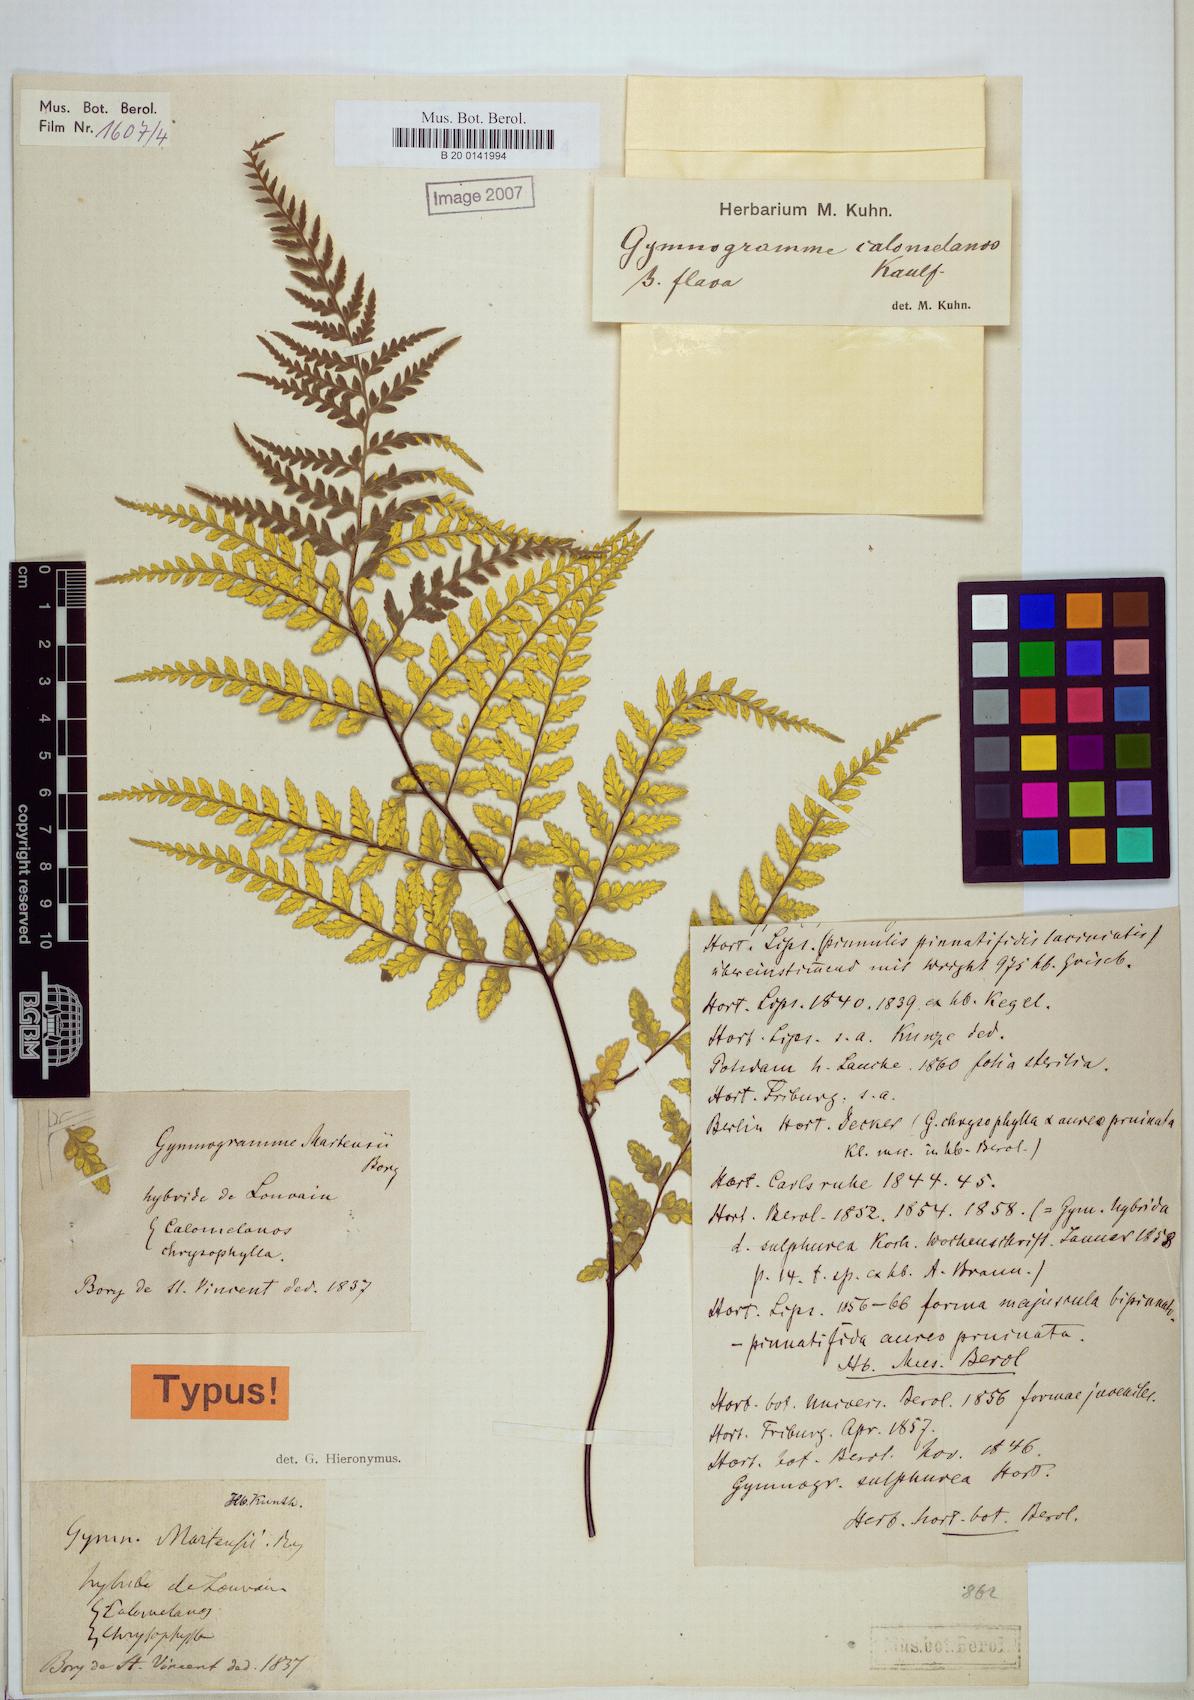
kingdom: Plantae
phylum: Tracheophyta
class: Polypodiopsida
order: Polypodiales
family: Pteridaceae
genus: Pityrogramma
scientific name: Pityrogramma calomelanos
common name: Dixie silverback fern
